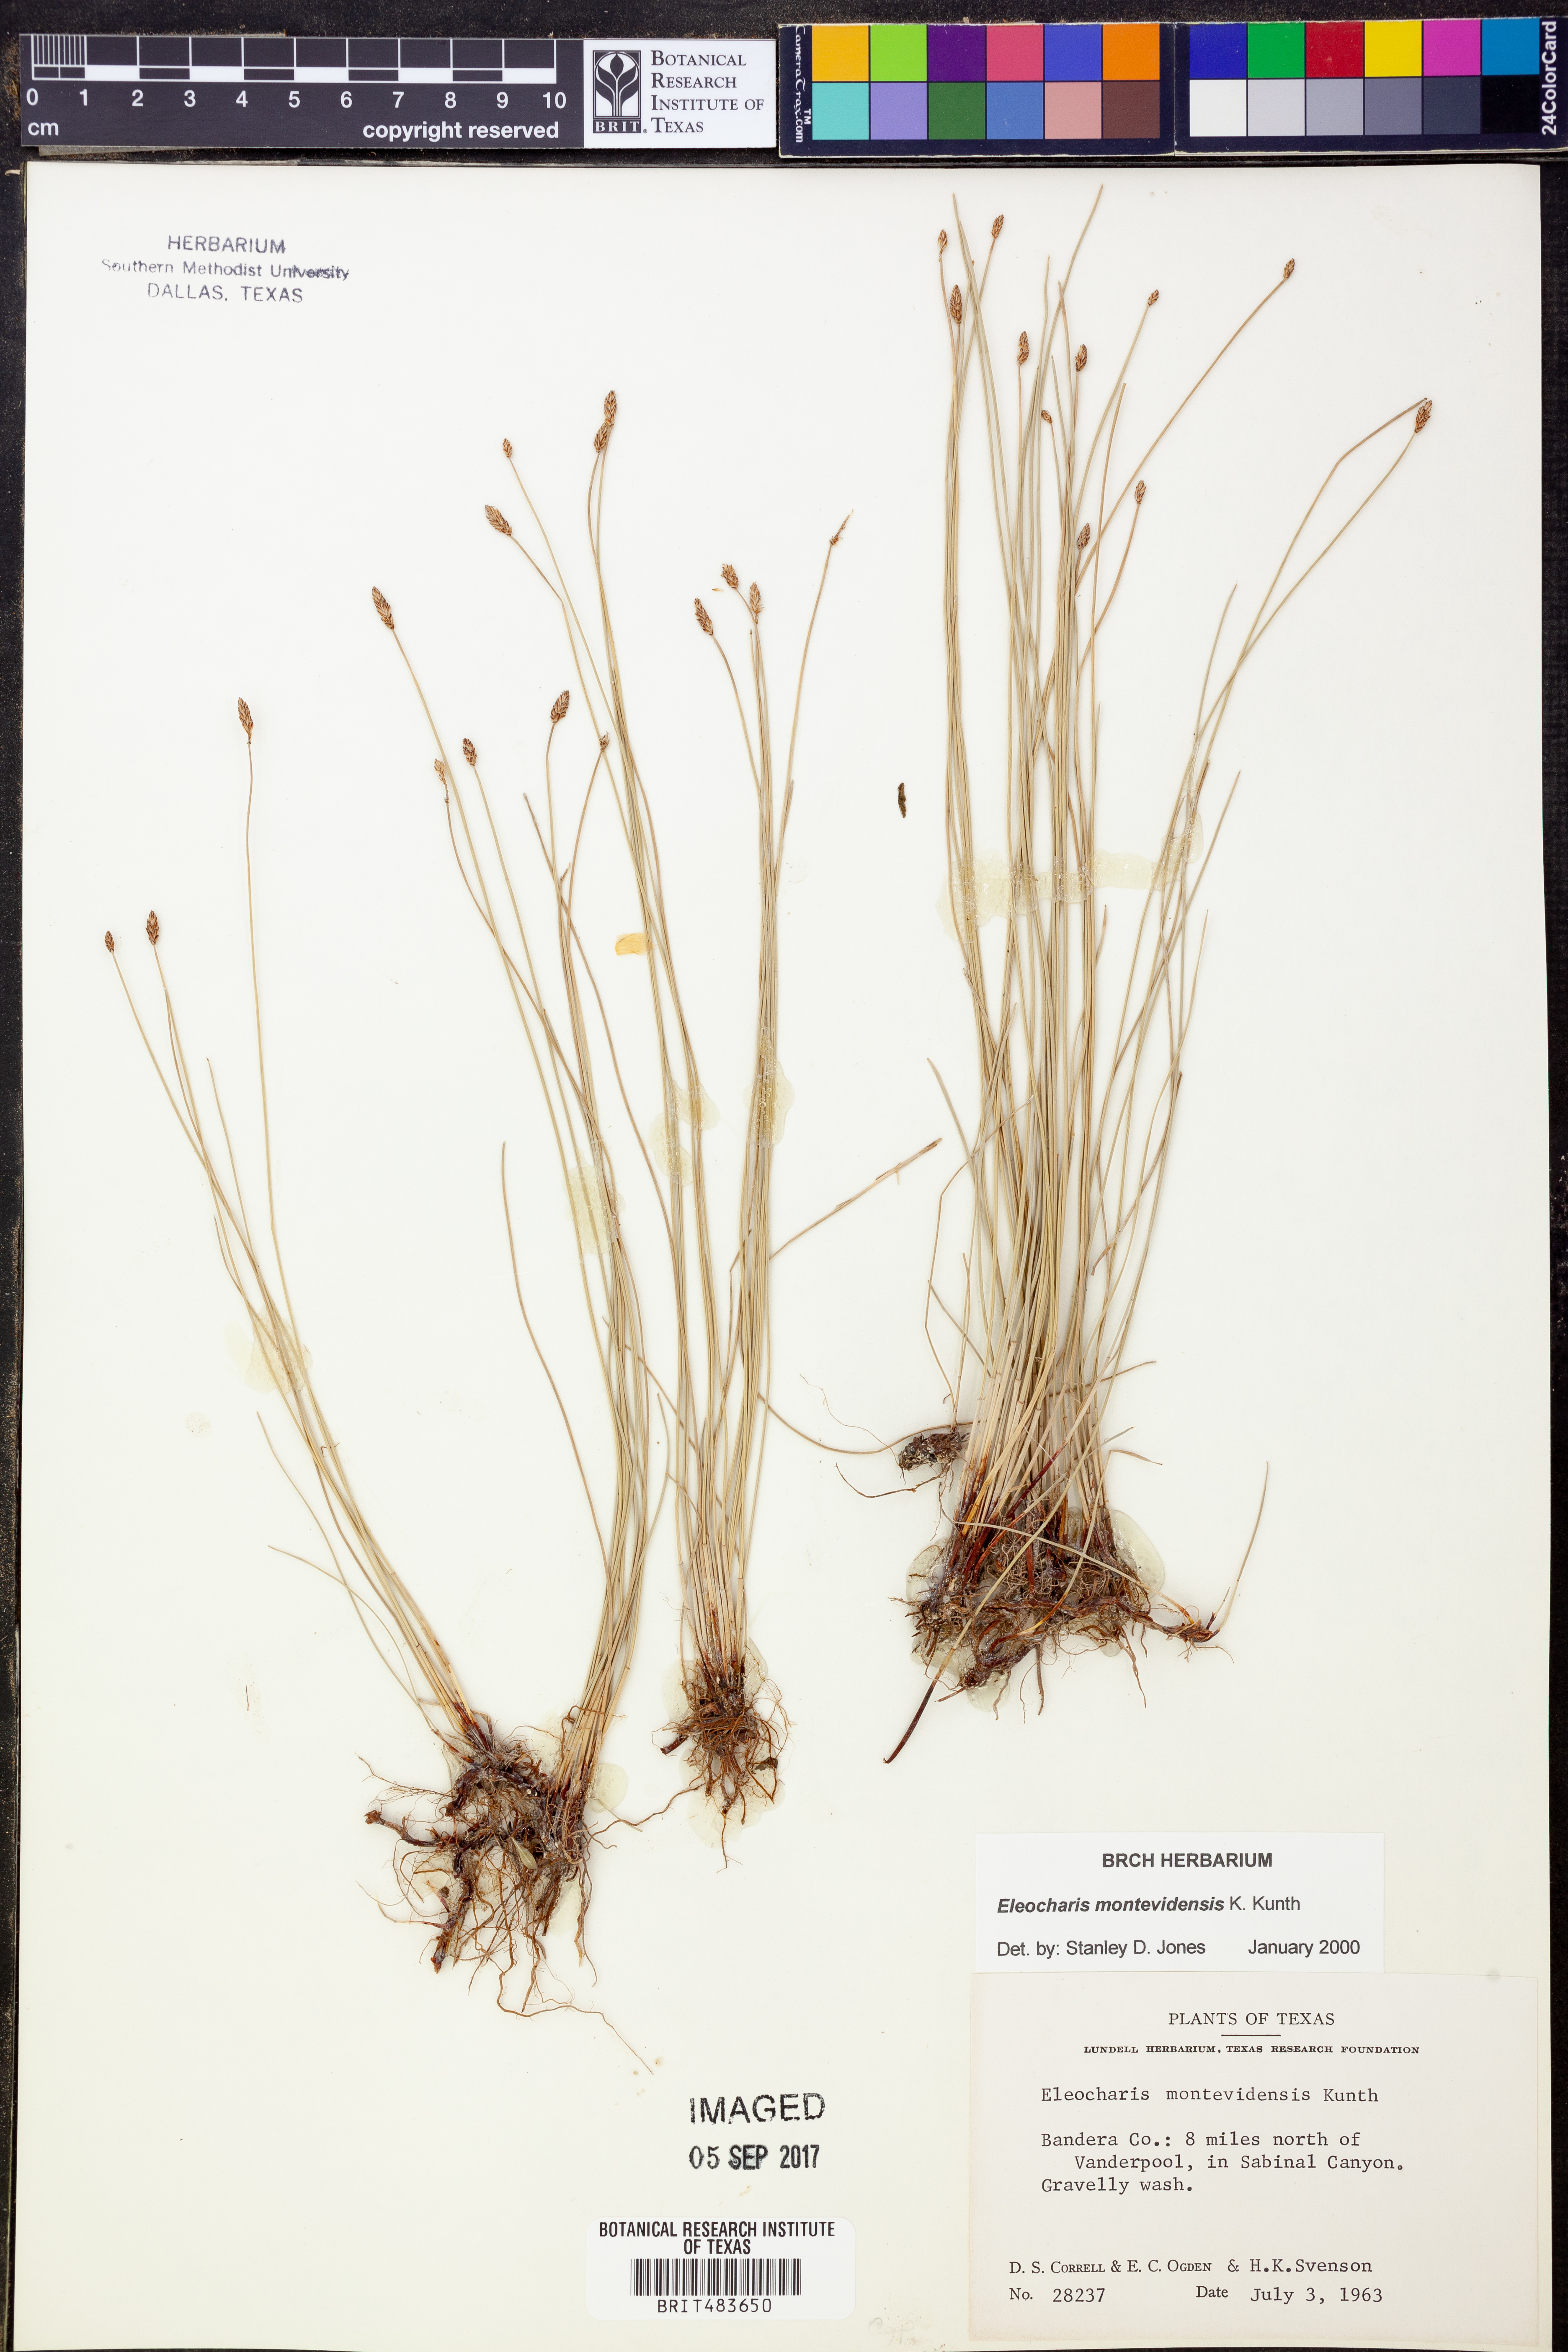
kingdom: Plantae
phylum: Tracheophyta
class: Liliopsida
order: Poales
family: Cyperaceae
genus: Eleocharis
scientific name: Eleocharis montevidensis
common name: Sand spike-rush
